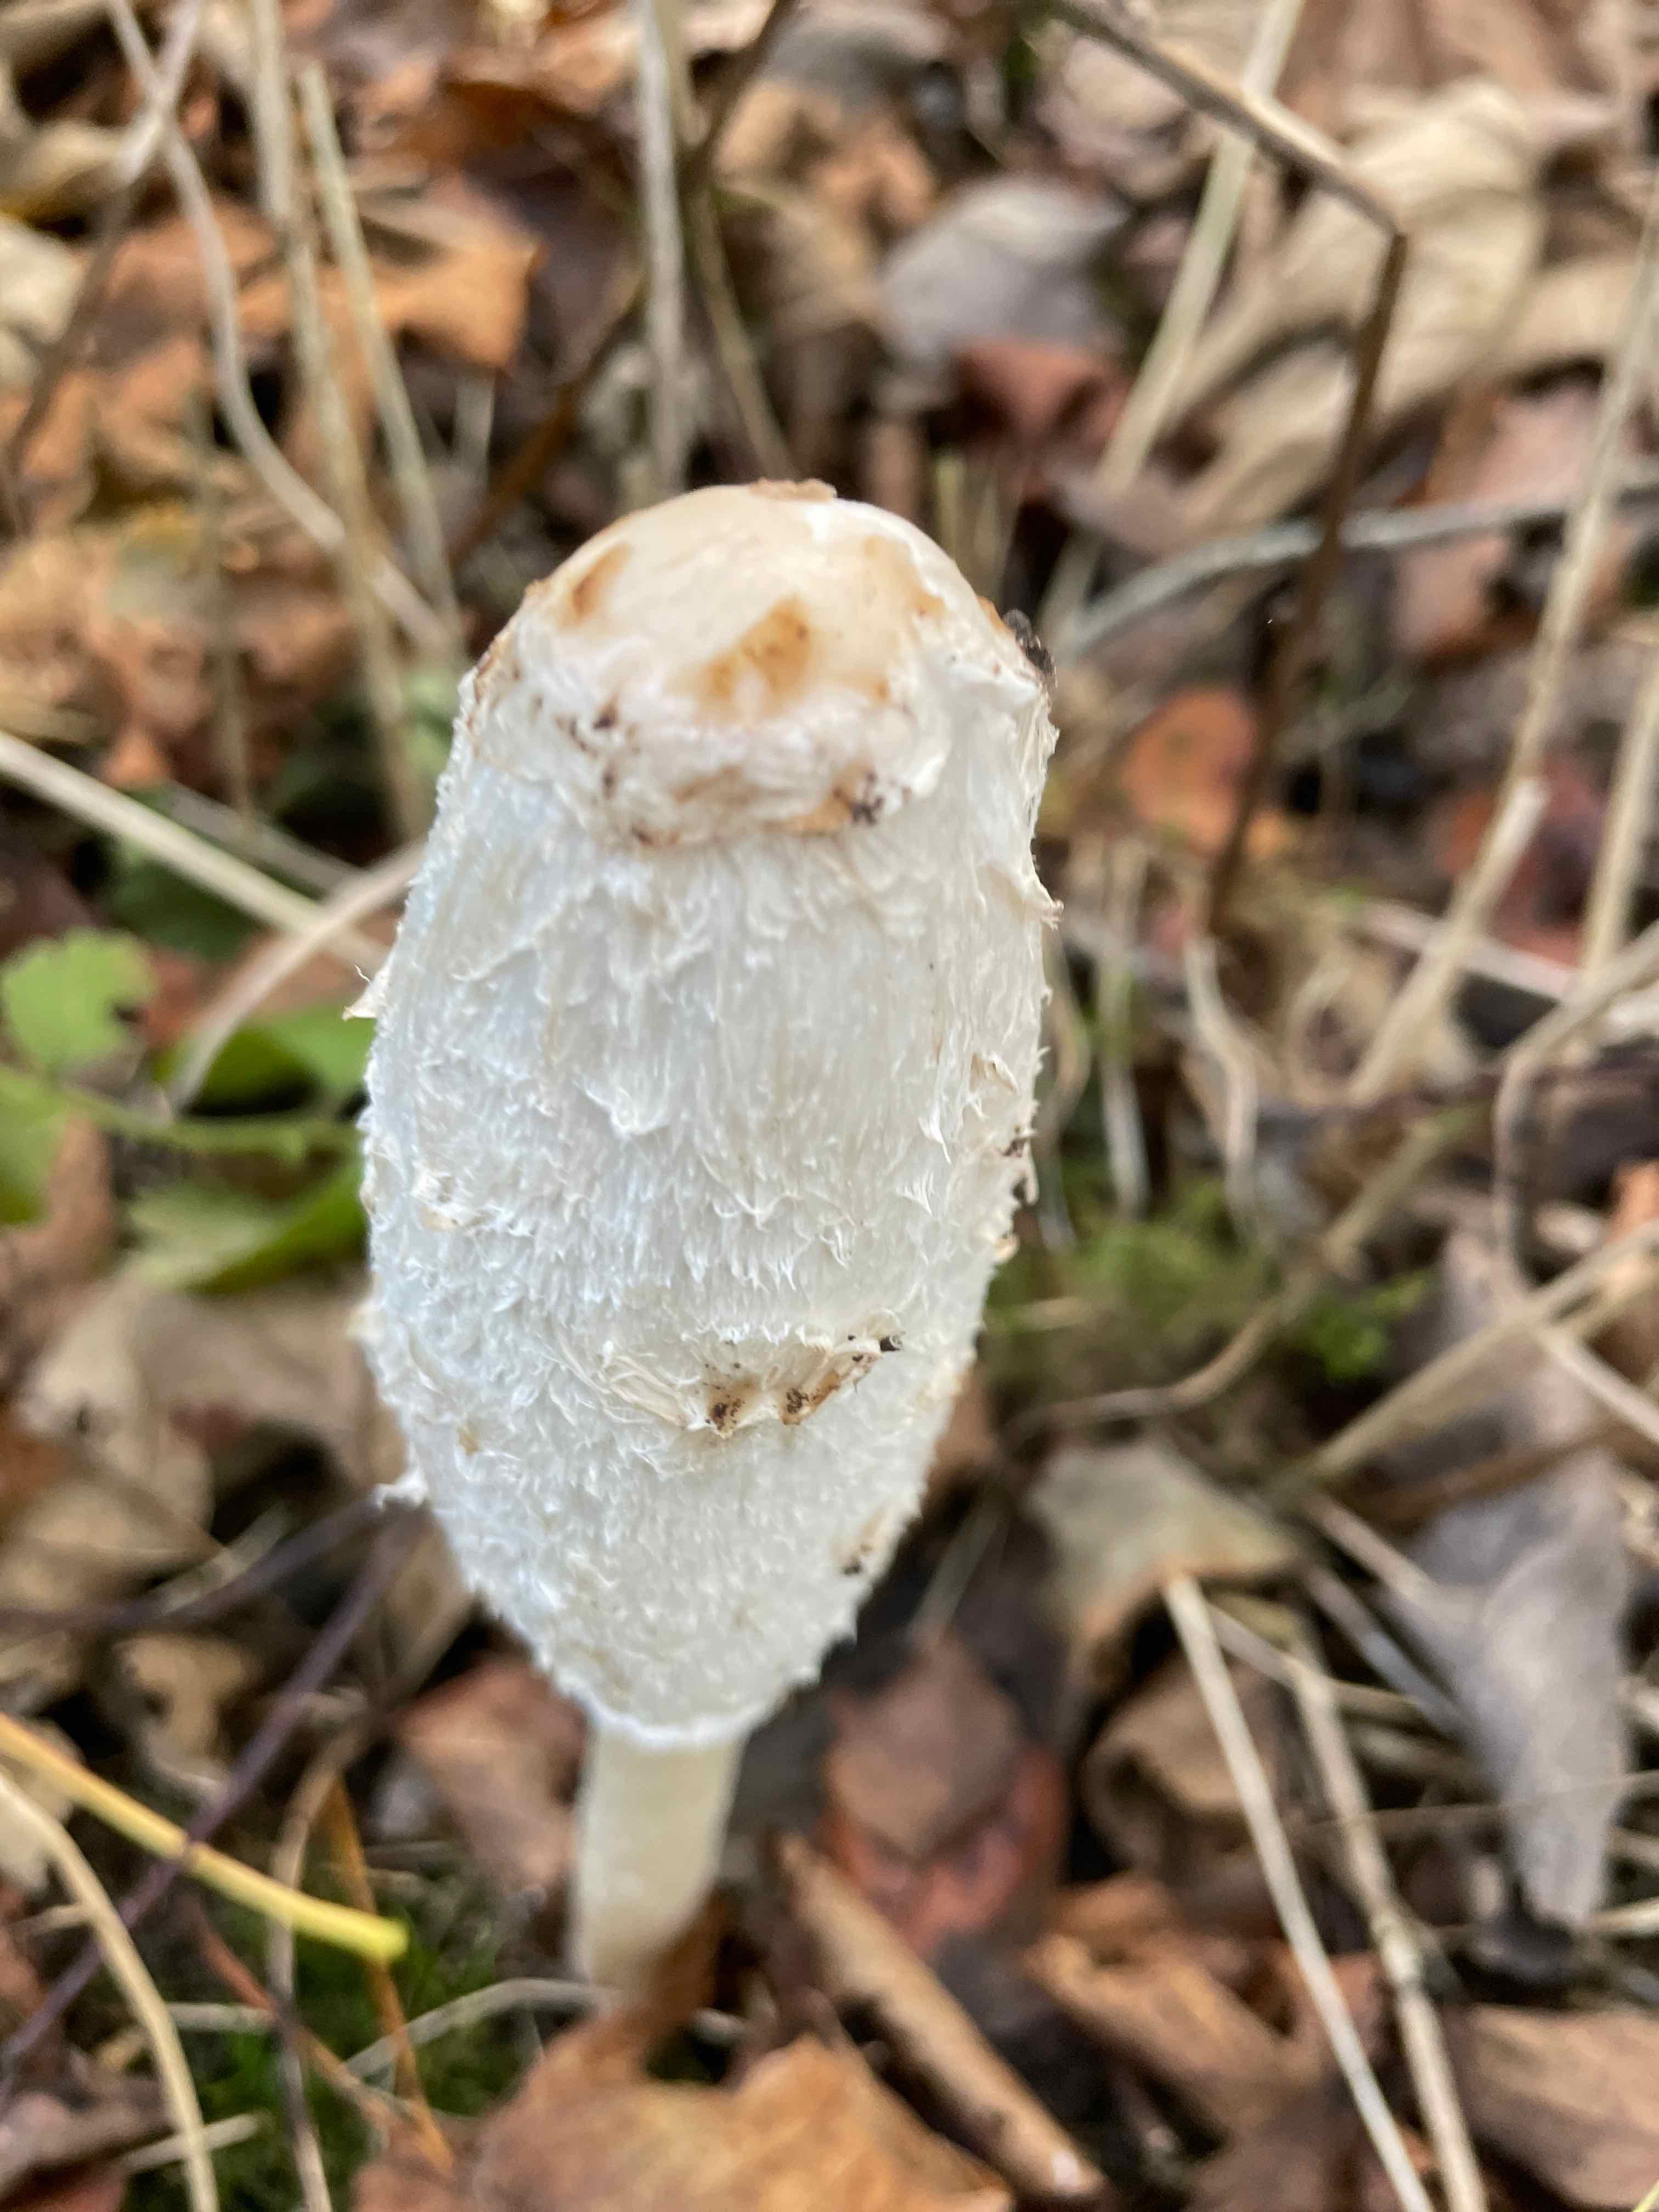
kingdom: Fungi
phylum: Basidiomycota
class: Agaricomycetes
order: Agaricales
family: Agaricaceae
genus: Coprinus
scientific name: Coprinus comatus
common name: stor parykhat
